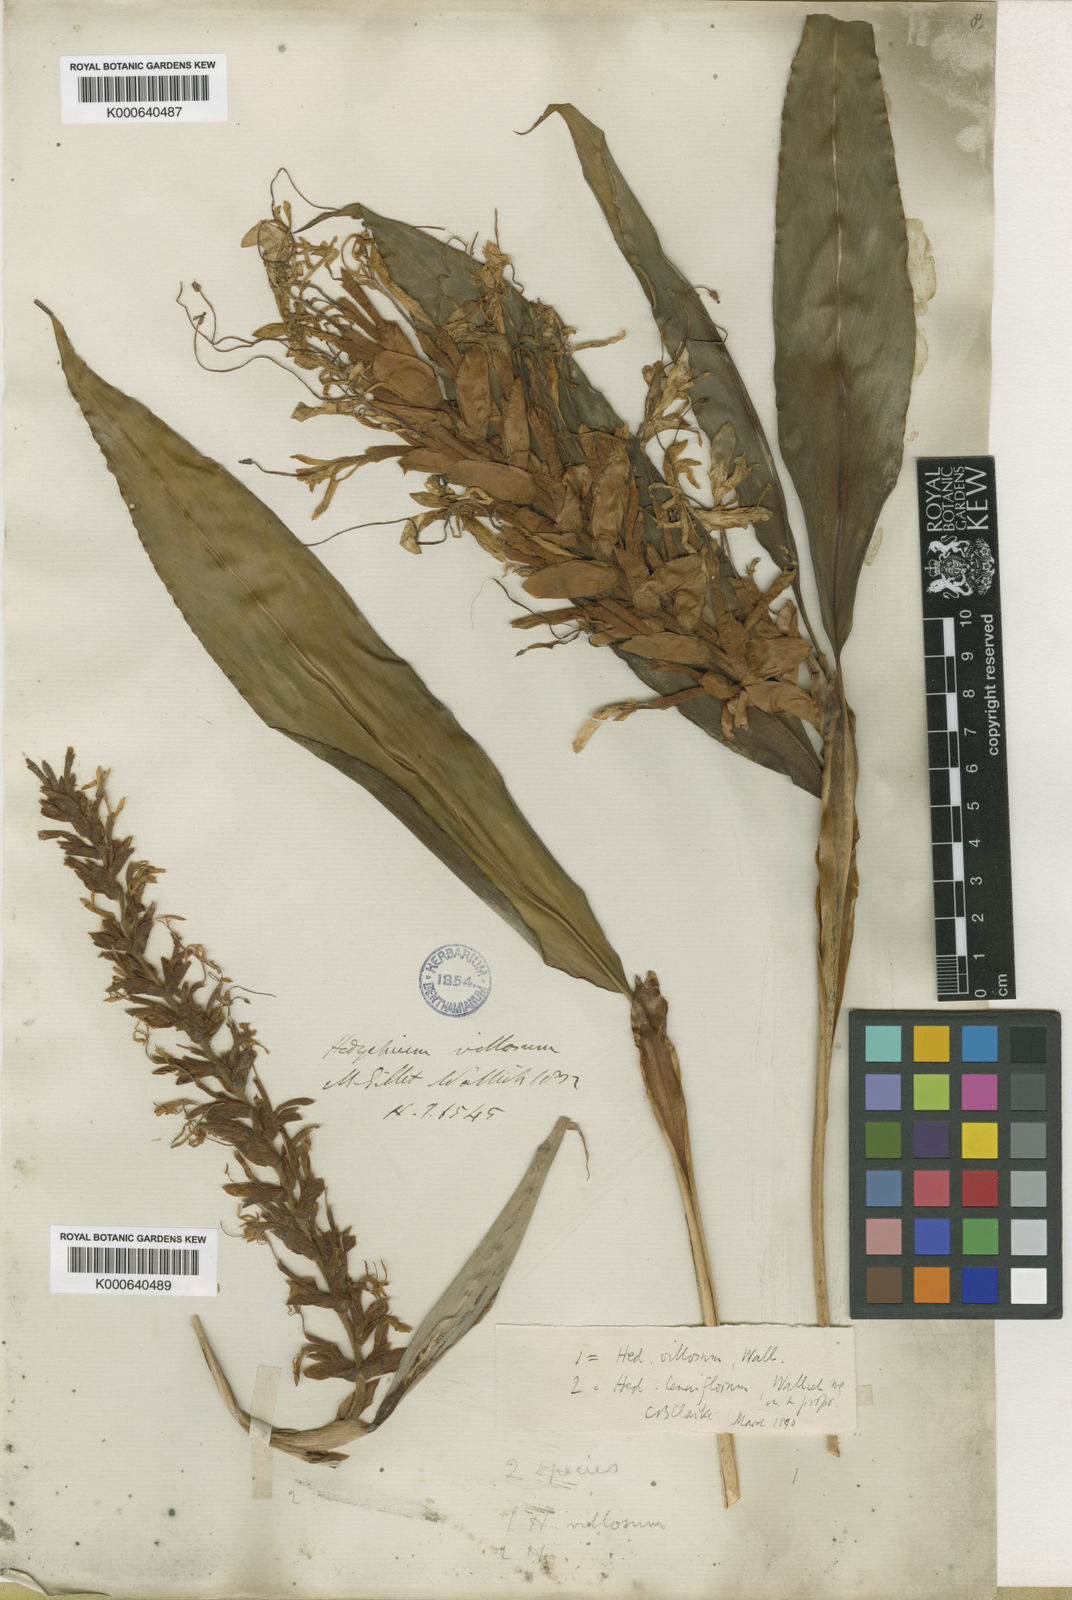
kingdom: Plantae
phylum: Tracheophyta
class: Liliopsida
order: Zingiberales
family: Zingiberaceae
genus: Hedychium
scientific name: Hedychium villosum
